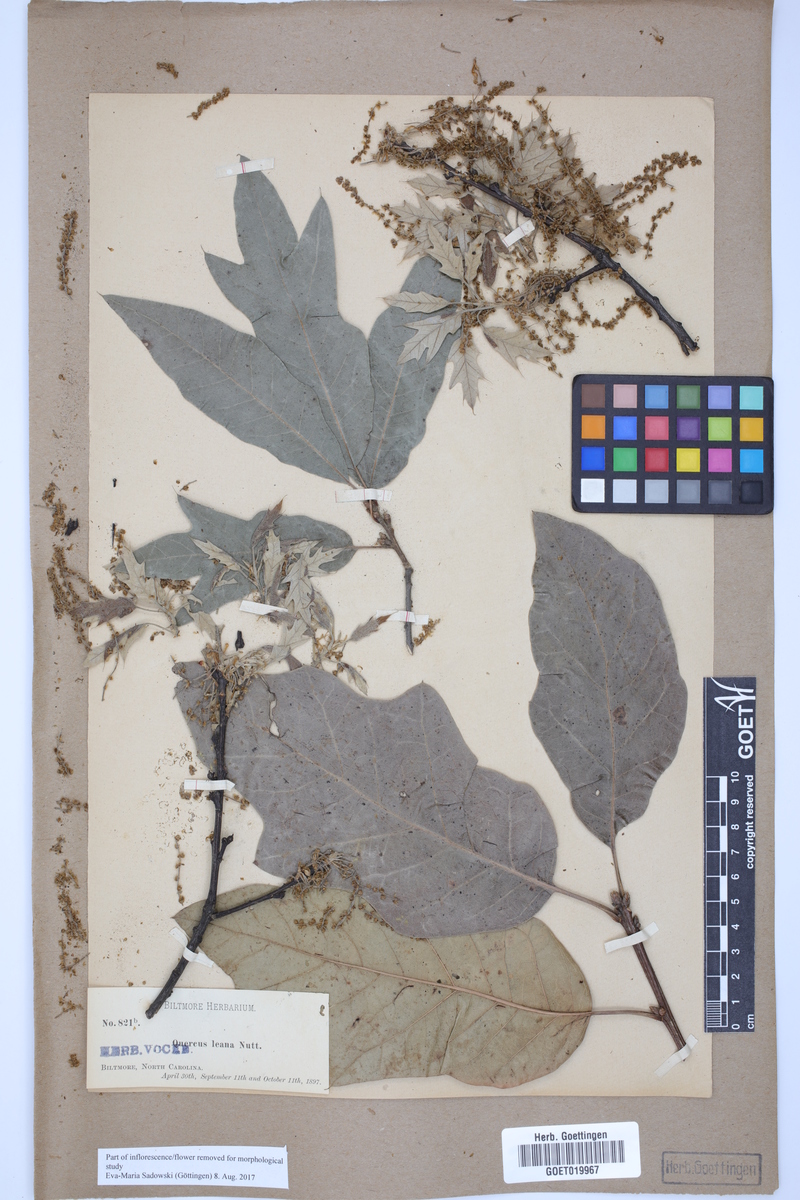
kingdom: Plantae
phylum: Tracheophyta
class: Magnoliopsida
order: Fagales
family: Fagaceae
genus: Quercus
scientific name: Quercus leana
